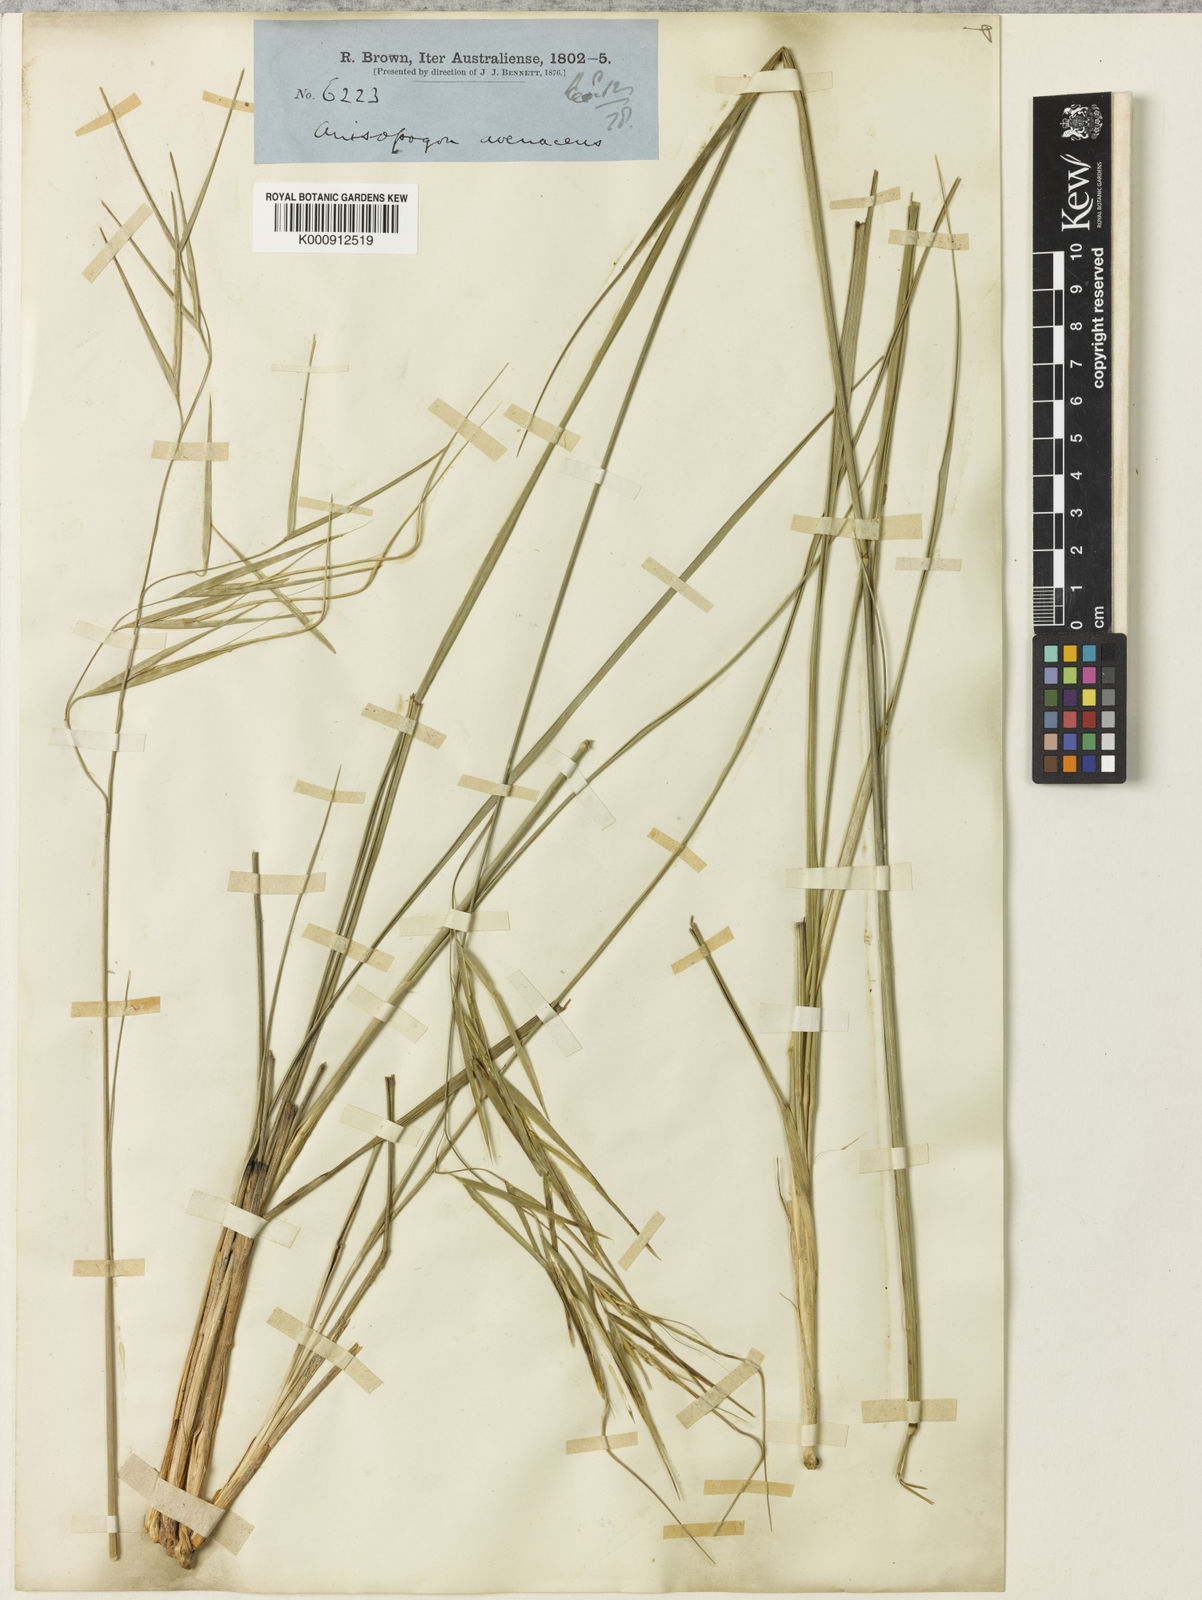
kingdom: Plantae
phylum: Tracheophyta
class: Liliopsida
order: Poales
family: Poaceae
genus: Anisopogon
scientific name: Anisopogon avenaceus
